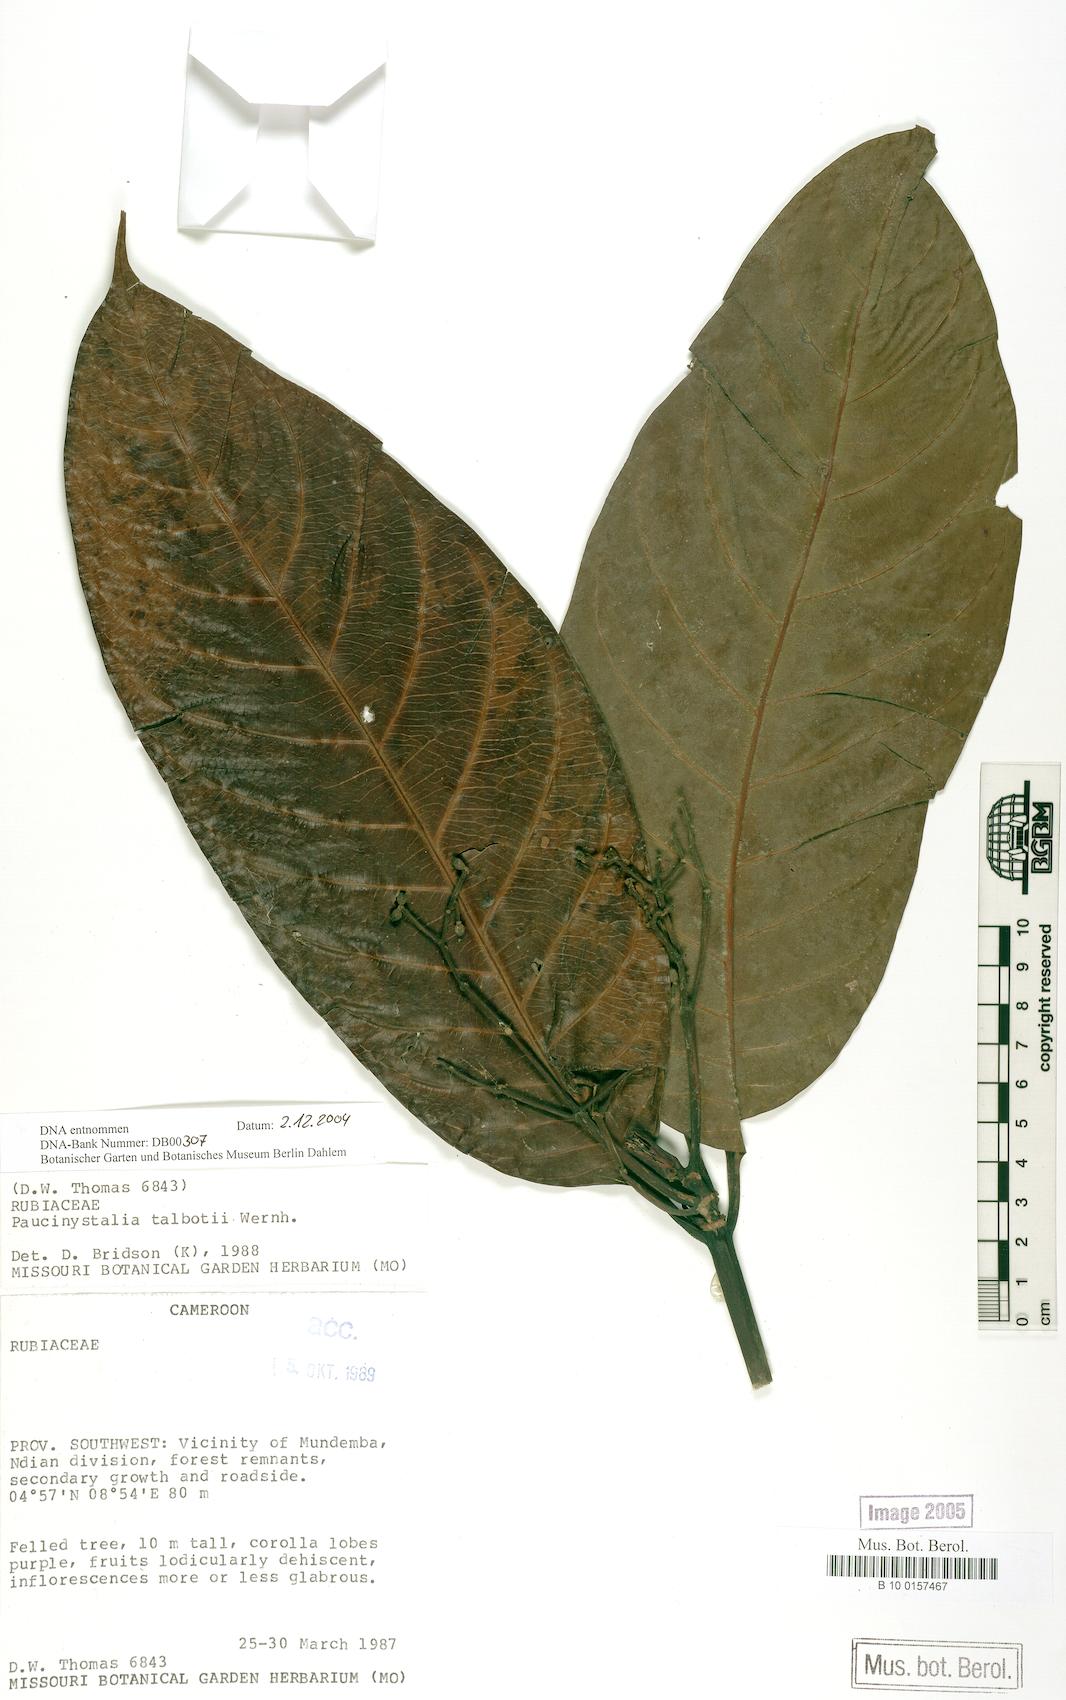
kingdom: Plantae
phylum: Tracheophyta
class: Magnoliopsida
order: Gentianales
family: Rubiaceae
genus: Corynanthe
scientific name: Corynanthe talbotii
